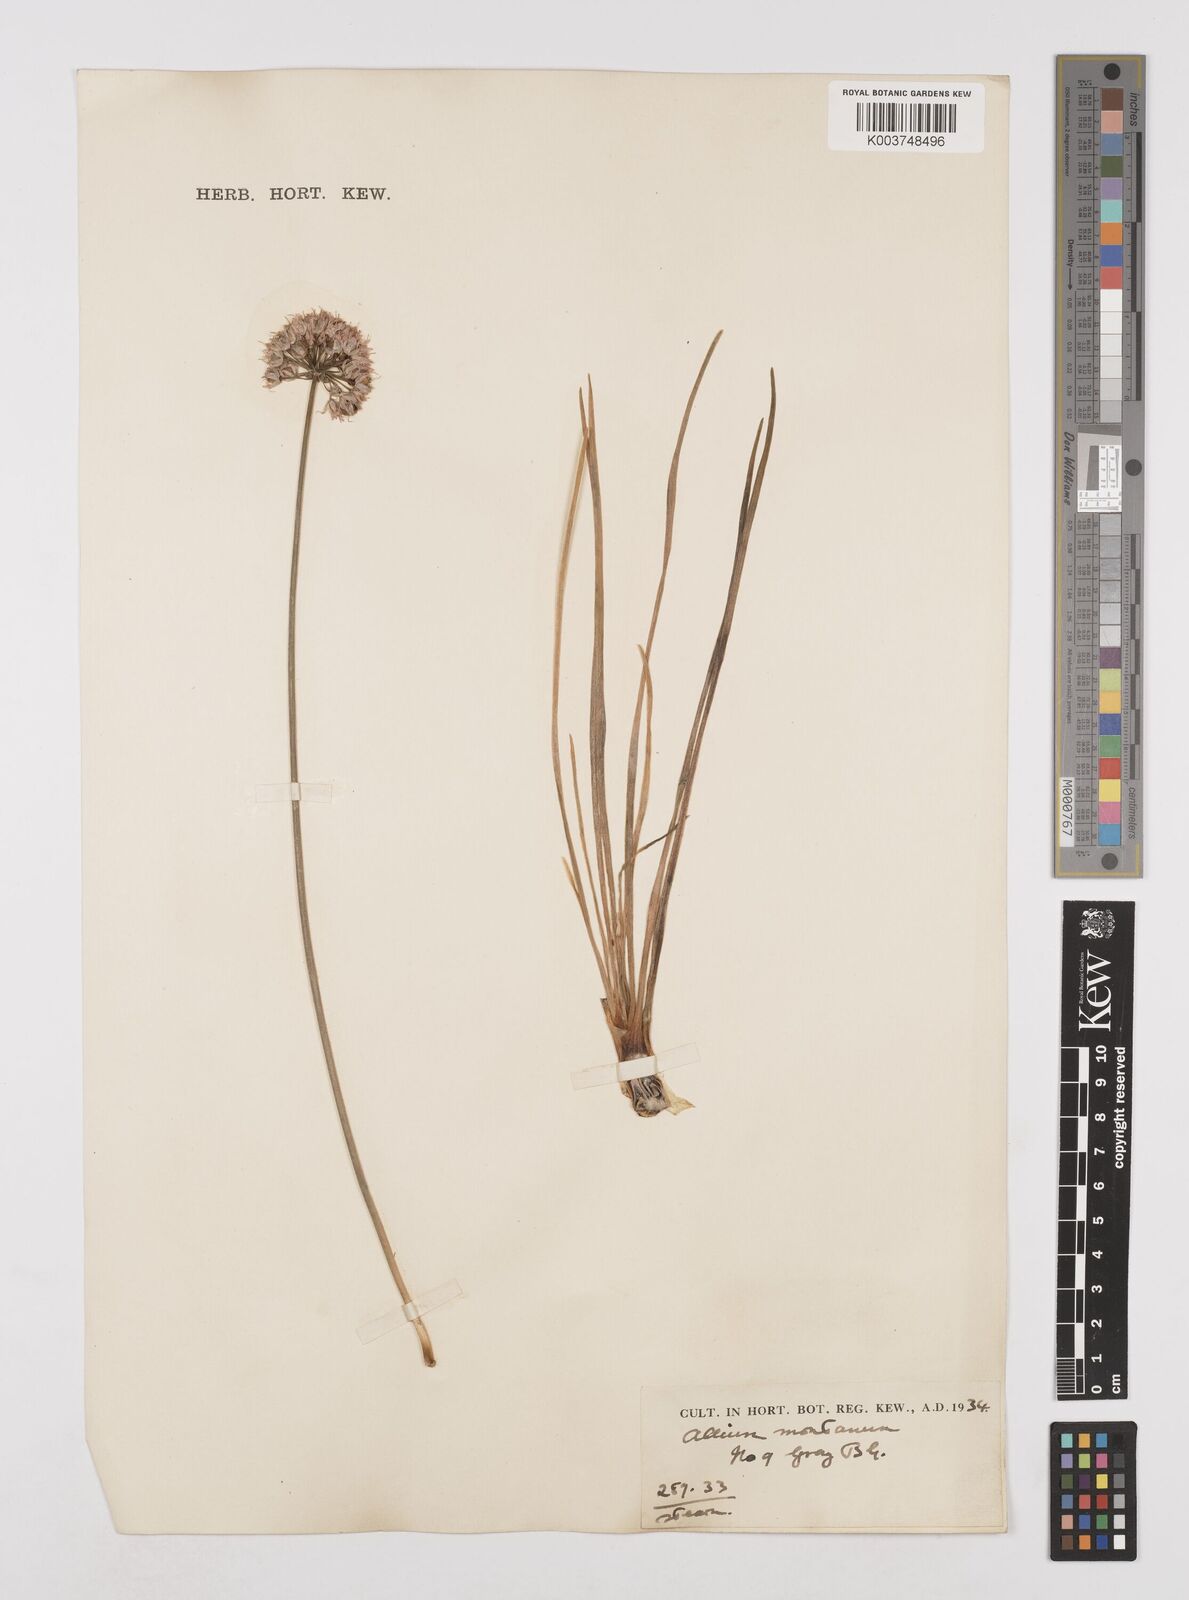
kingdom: Plantae
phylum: Tracheophyta
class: Liliopsida
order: Asparagales
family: Amaryllidaceae
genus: Allium
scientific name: Allium
